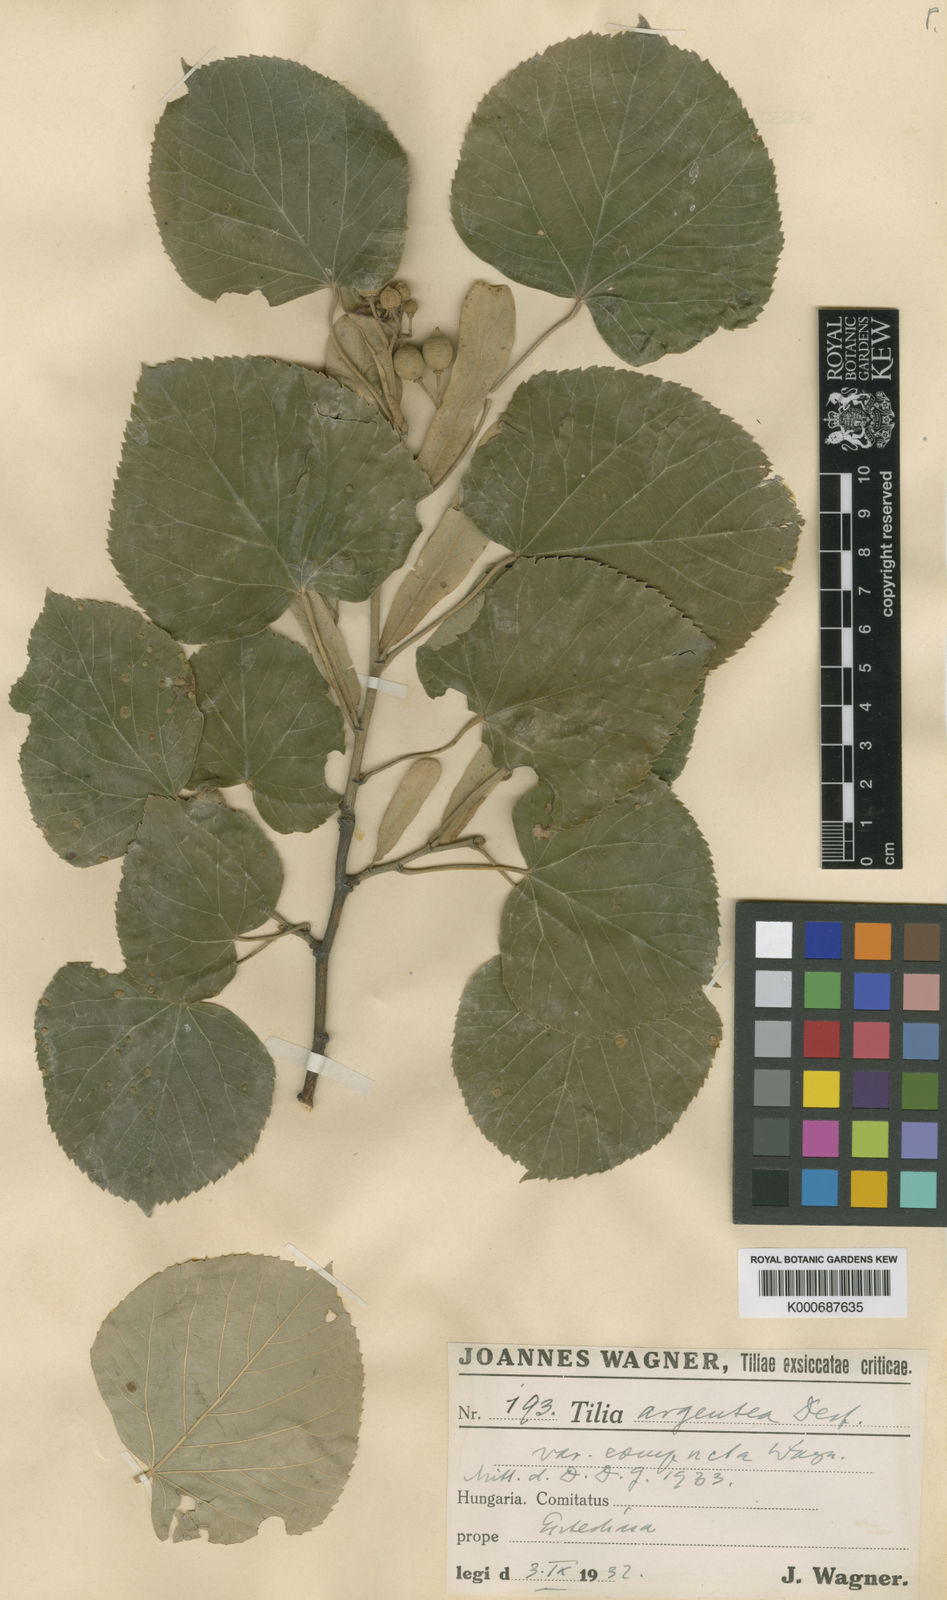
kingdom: Plantae
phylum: Tracheophyta
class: Magnoliopsida
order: Malvales
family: Malvaceae
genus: Tilia
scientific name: Tilia tomentosa
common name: Silver lime
